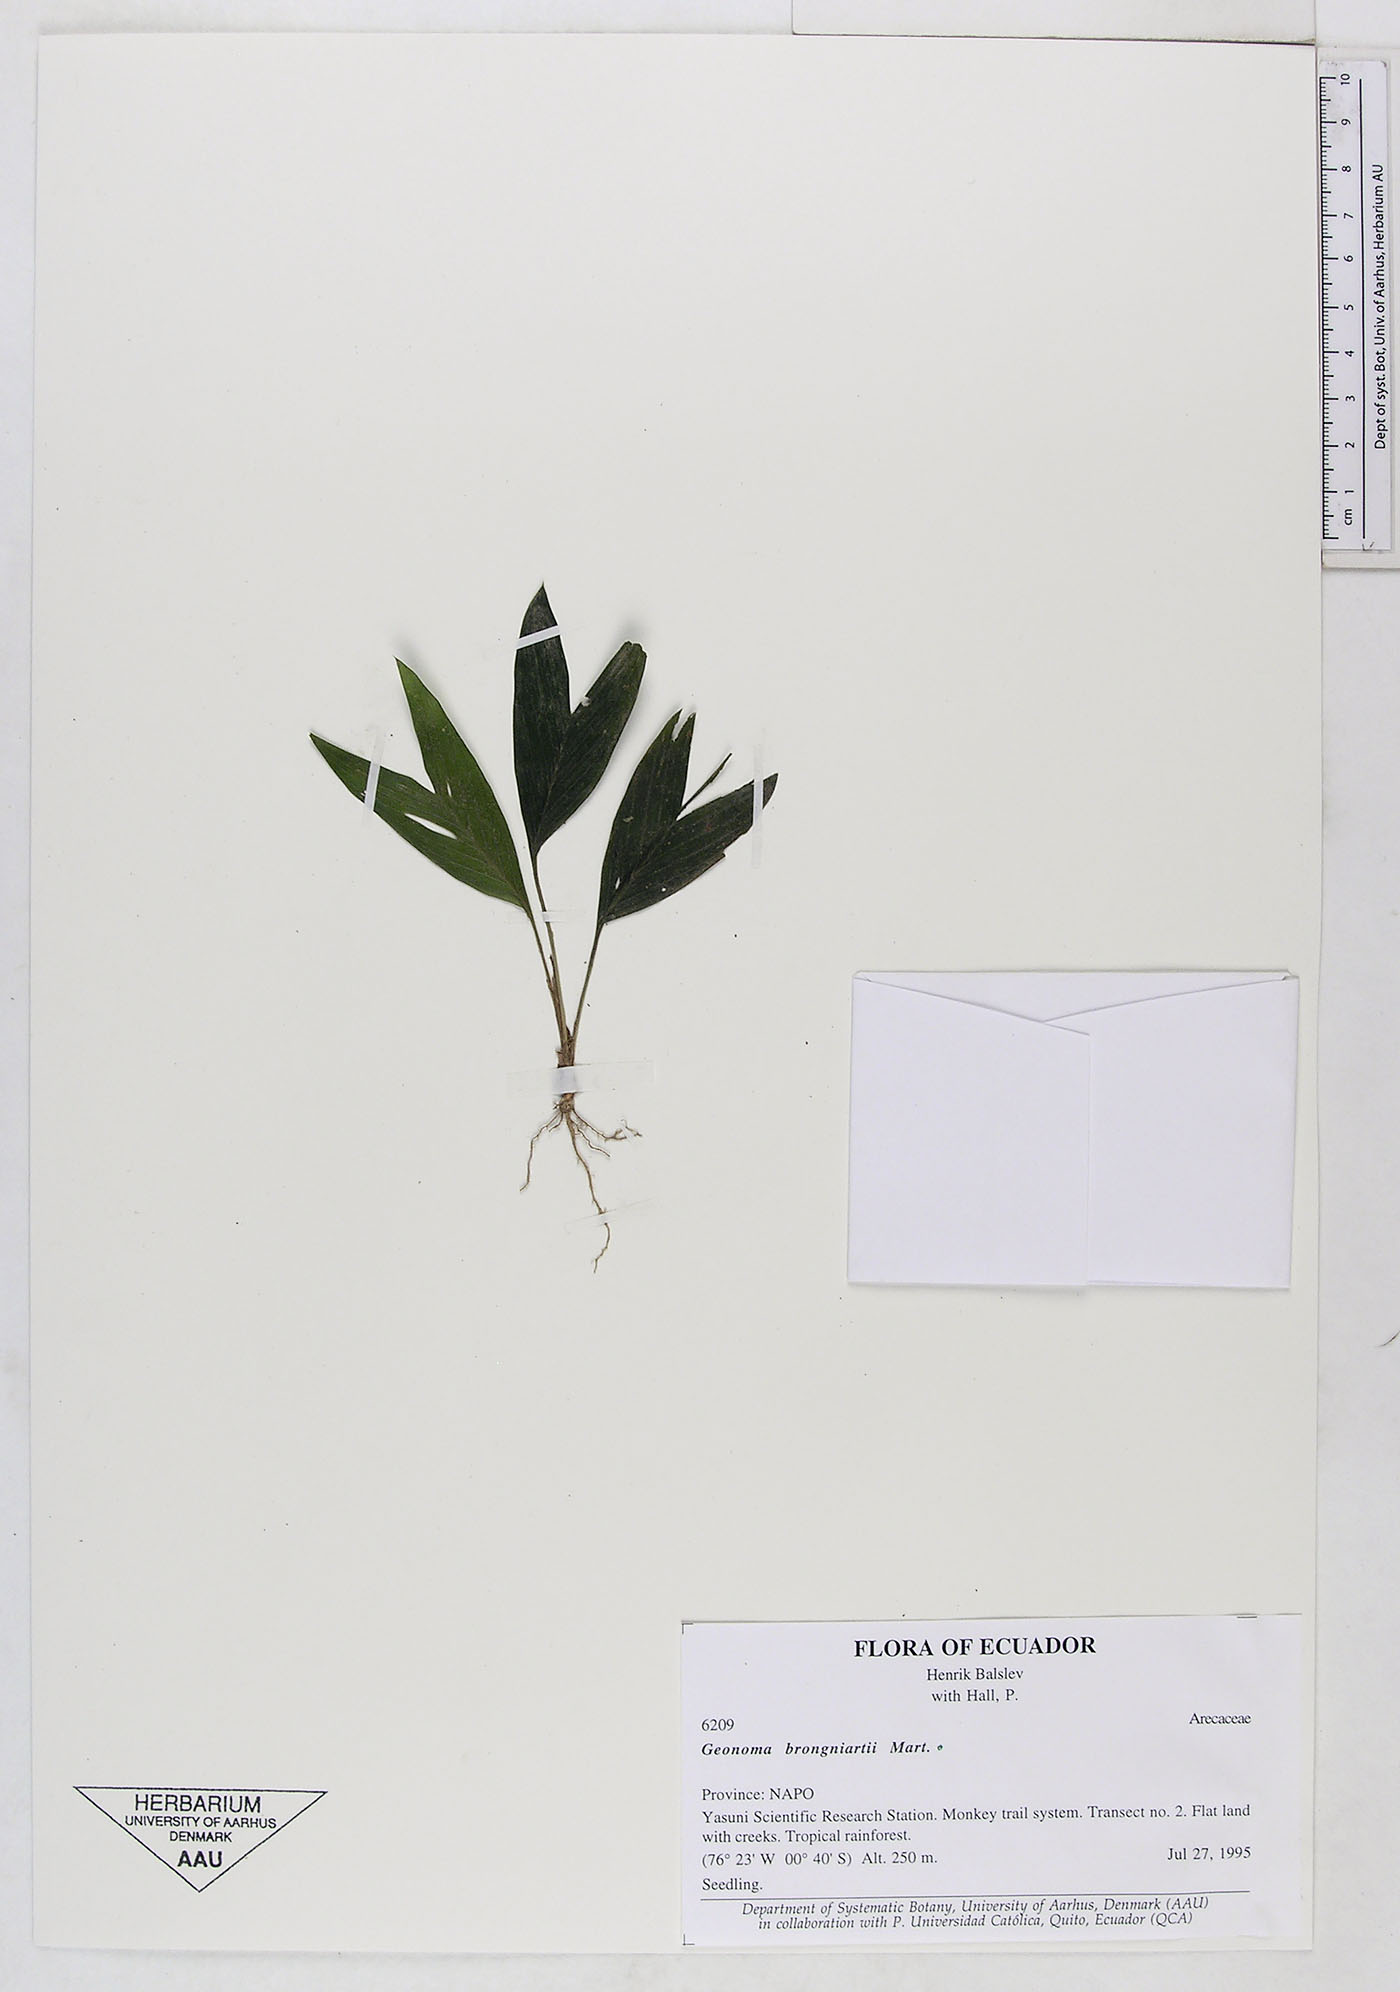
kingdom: Plantae
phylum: Tracheophyta
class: Liliopsida
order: Arecales
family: Arecaceae
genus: Geonoma
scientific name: Geonoma brongniartii
